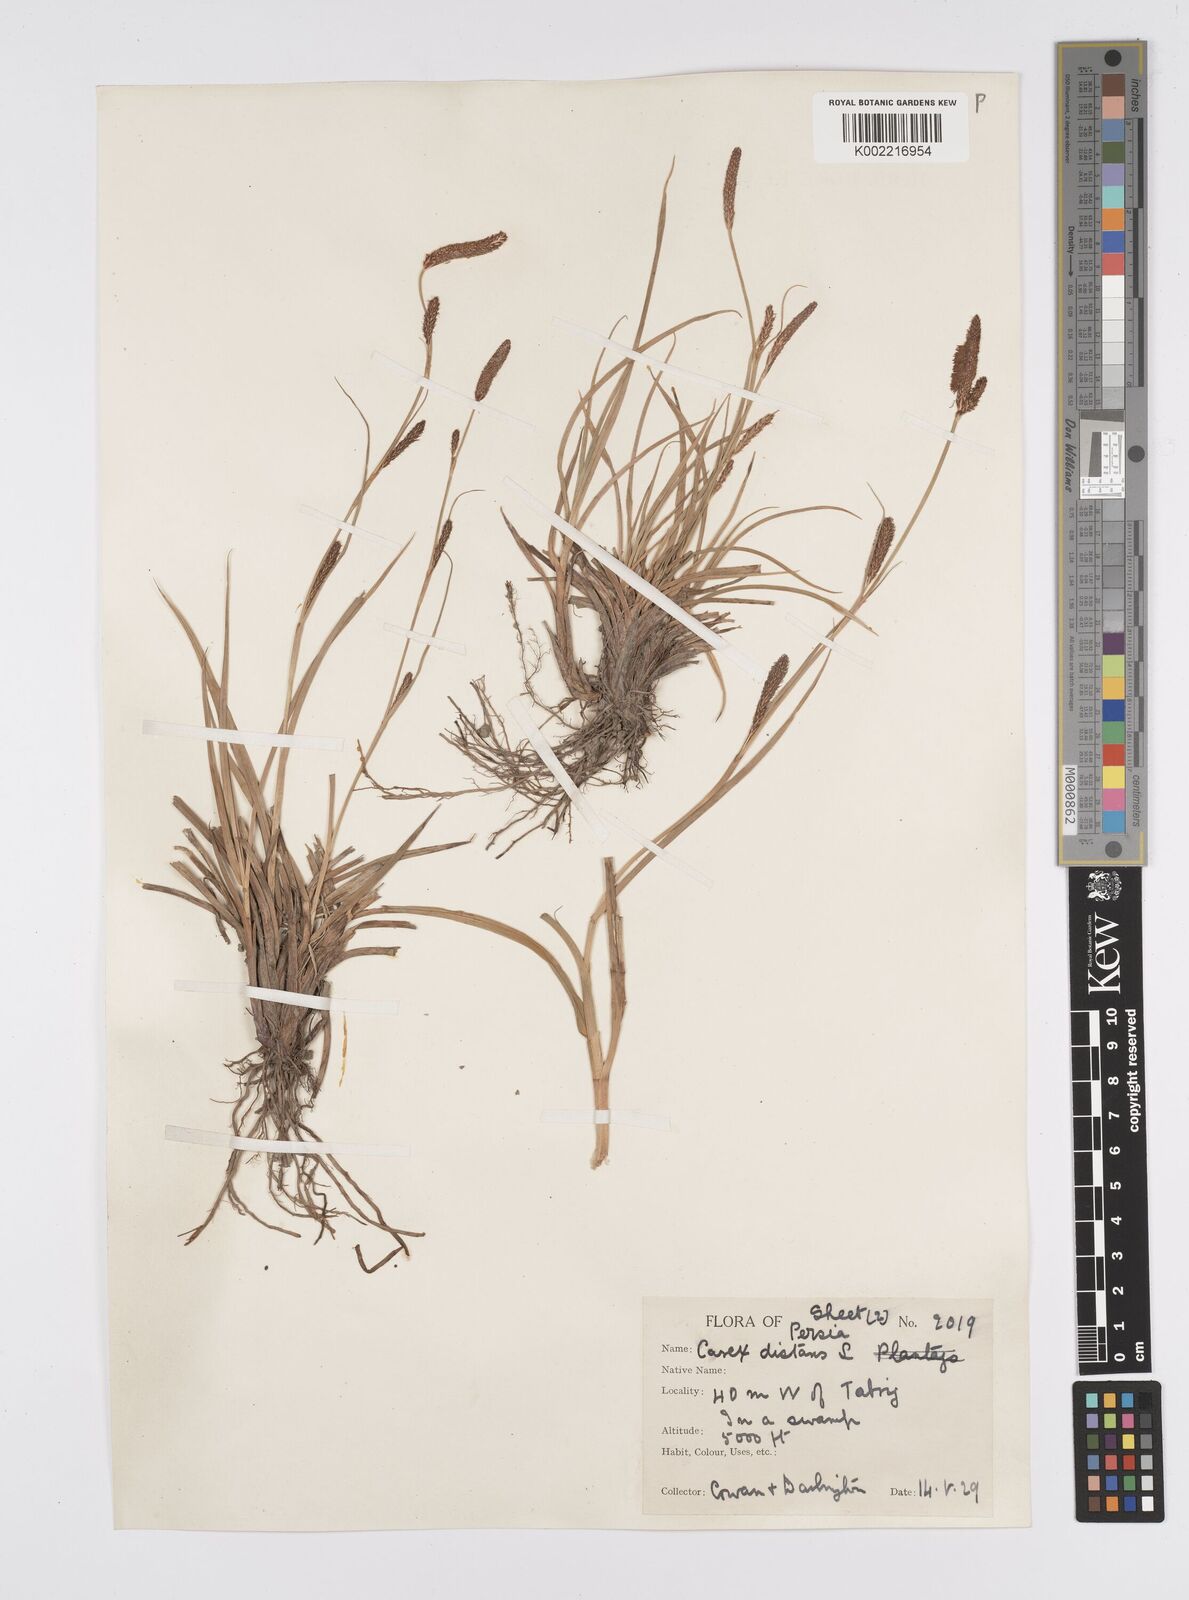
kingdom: Plantae
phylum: Tracheophyta
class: Liliopsida
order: Poales
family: Cyperaceae
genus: Carex
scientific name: Carex distans
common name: Distant sedge
